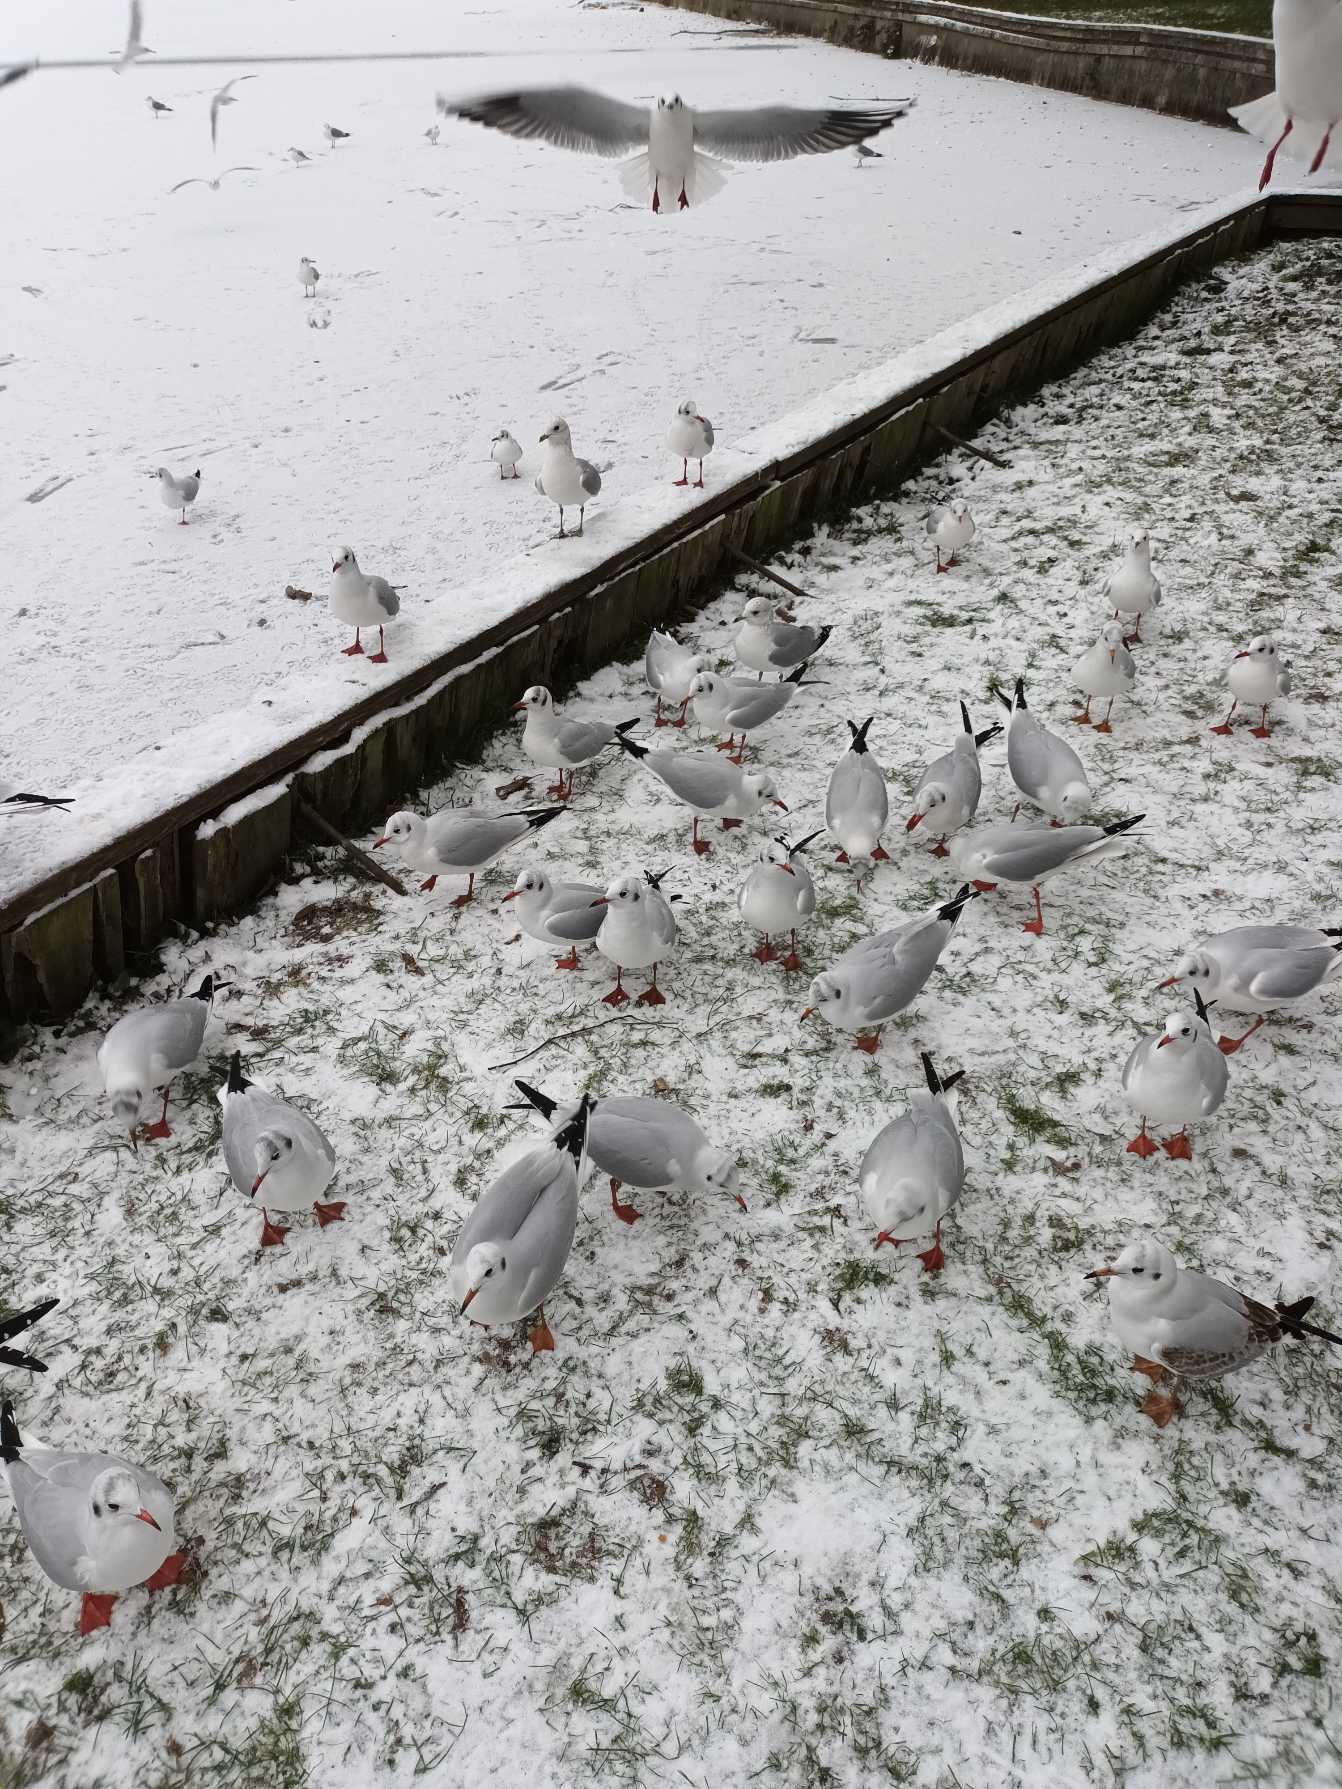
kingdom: Animalia
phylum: Chordata
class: Aves
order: Charadriiformes
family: Laridae
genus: Chroicocephalus
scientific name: Chroicocephalus ridibundus
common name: Hættemåge
